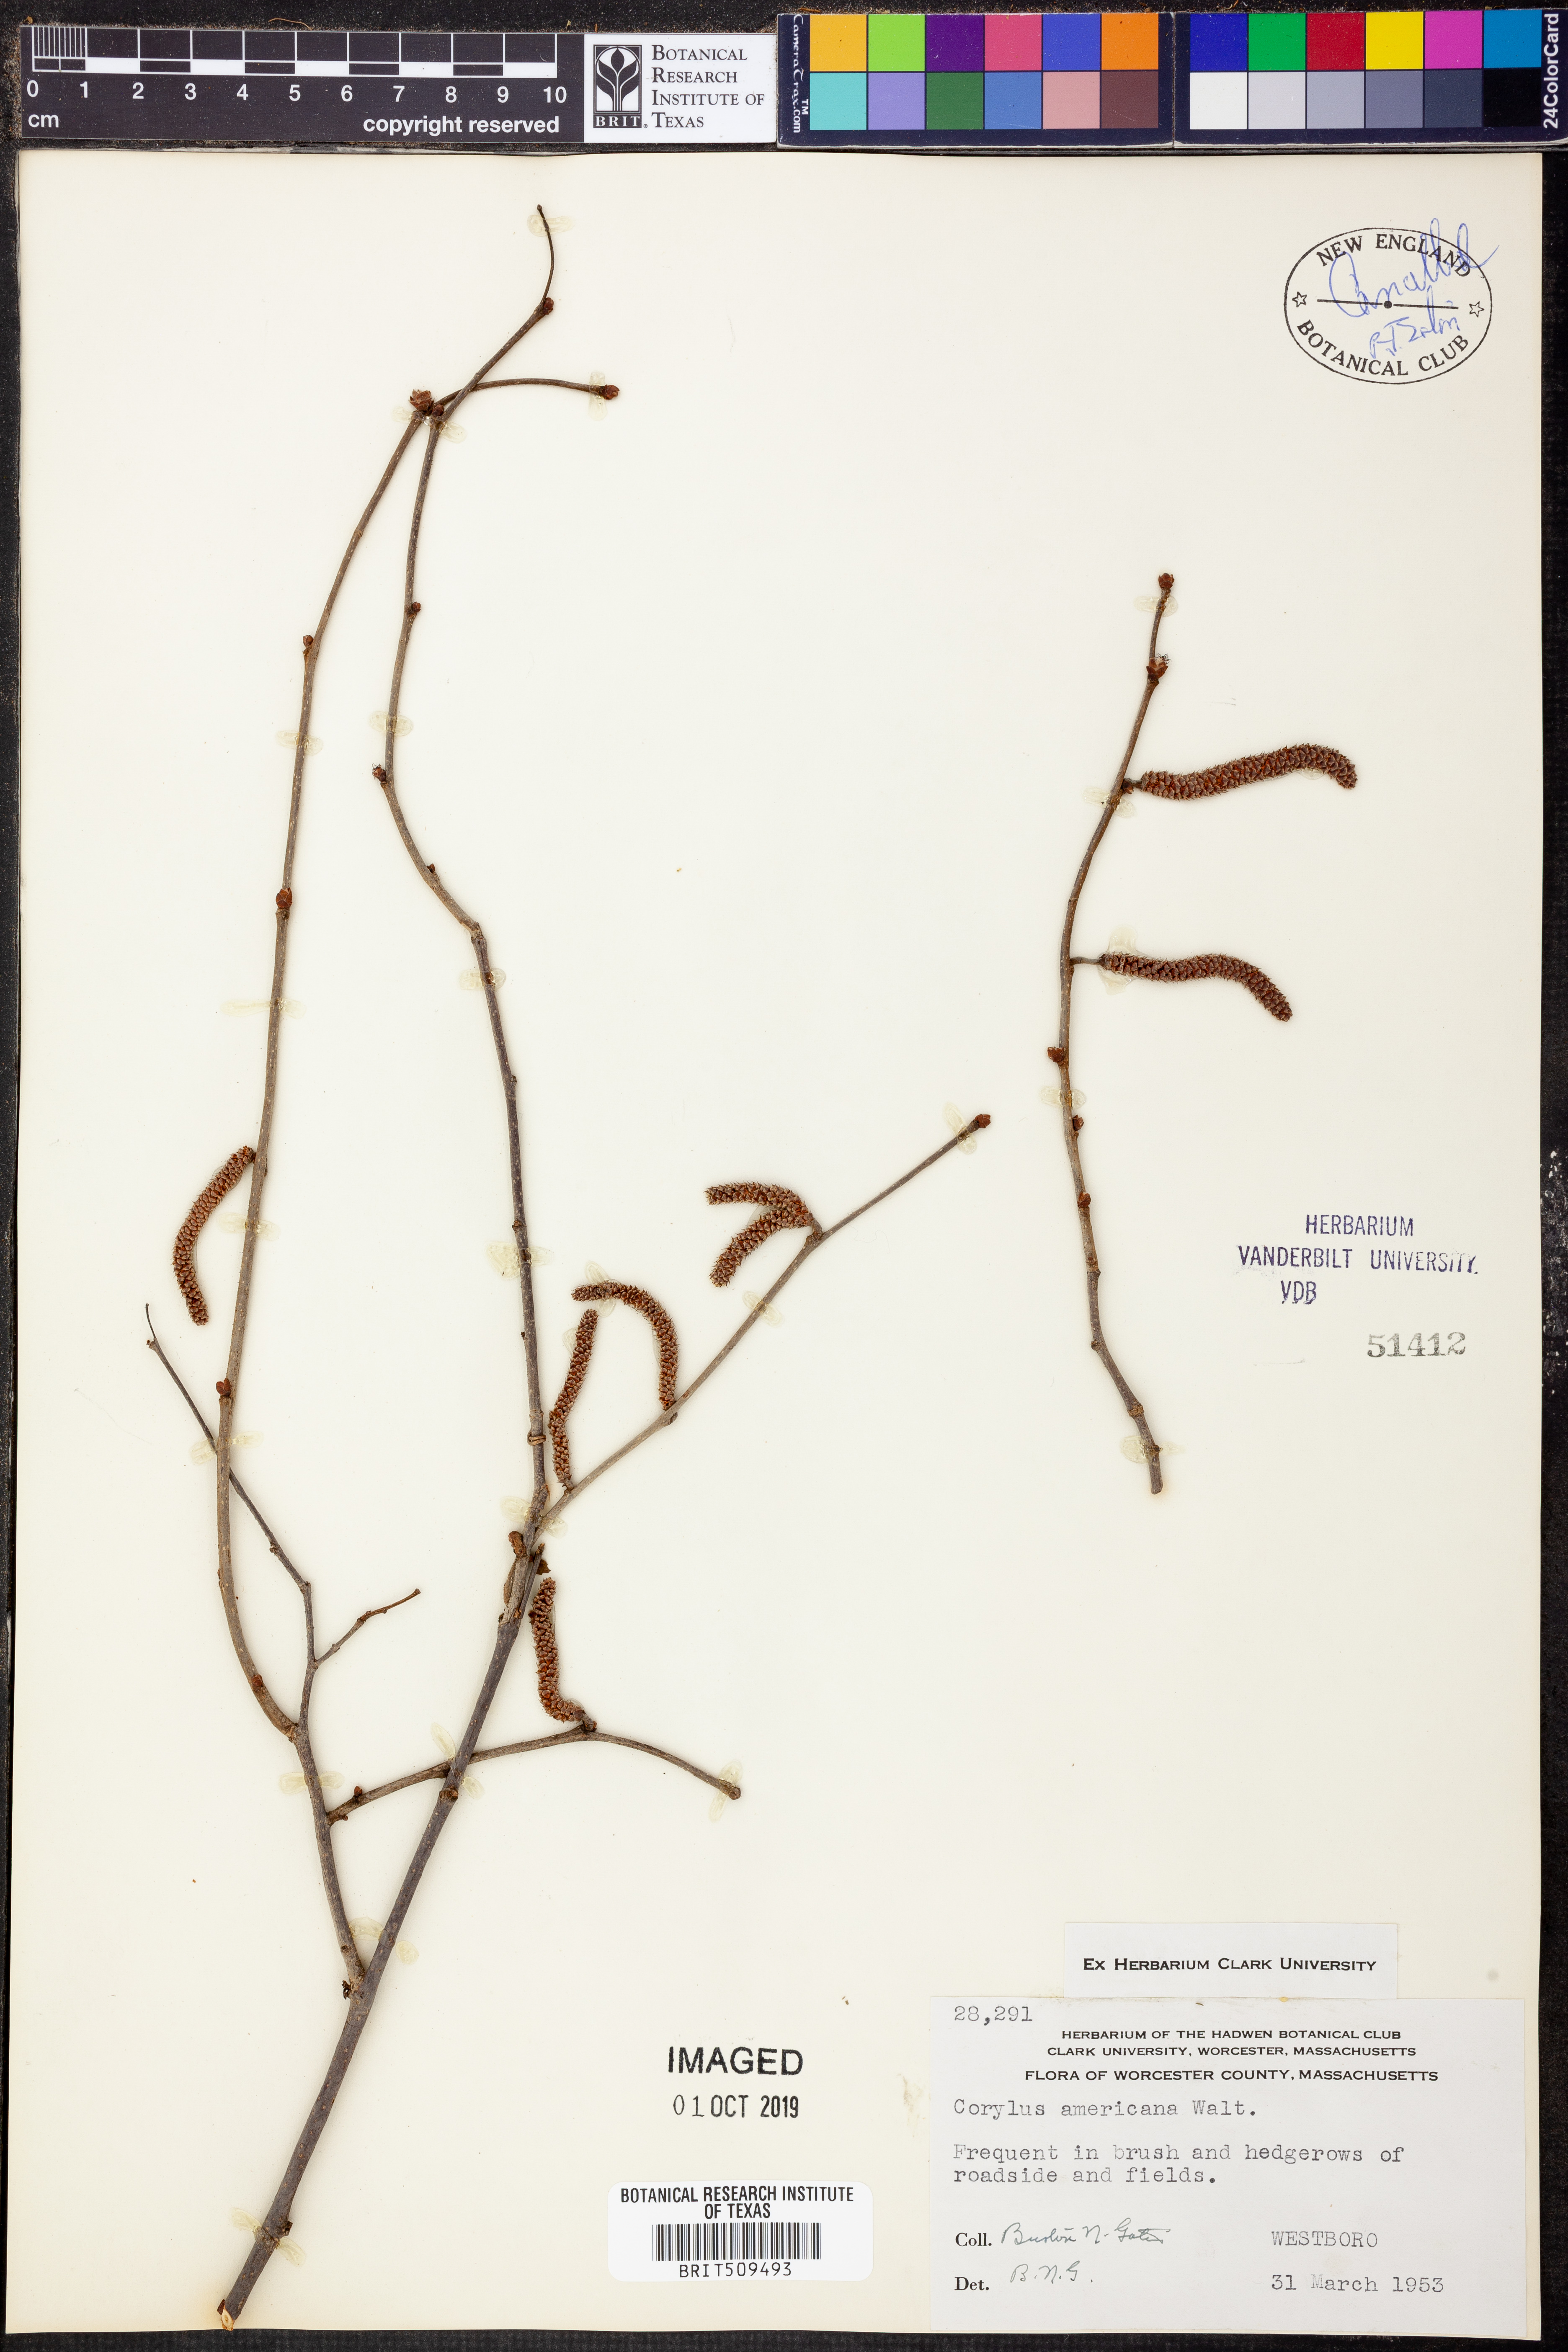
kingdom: Plantae
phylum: Tracheophyta
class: Magnoliopsida
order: Fagales
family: Betulaceae
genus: Corylus
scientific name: Corylus americana
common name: American hazel
